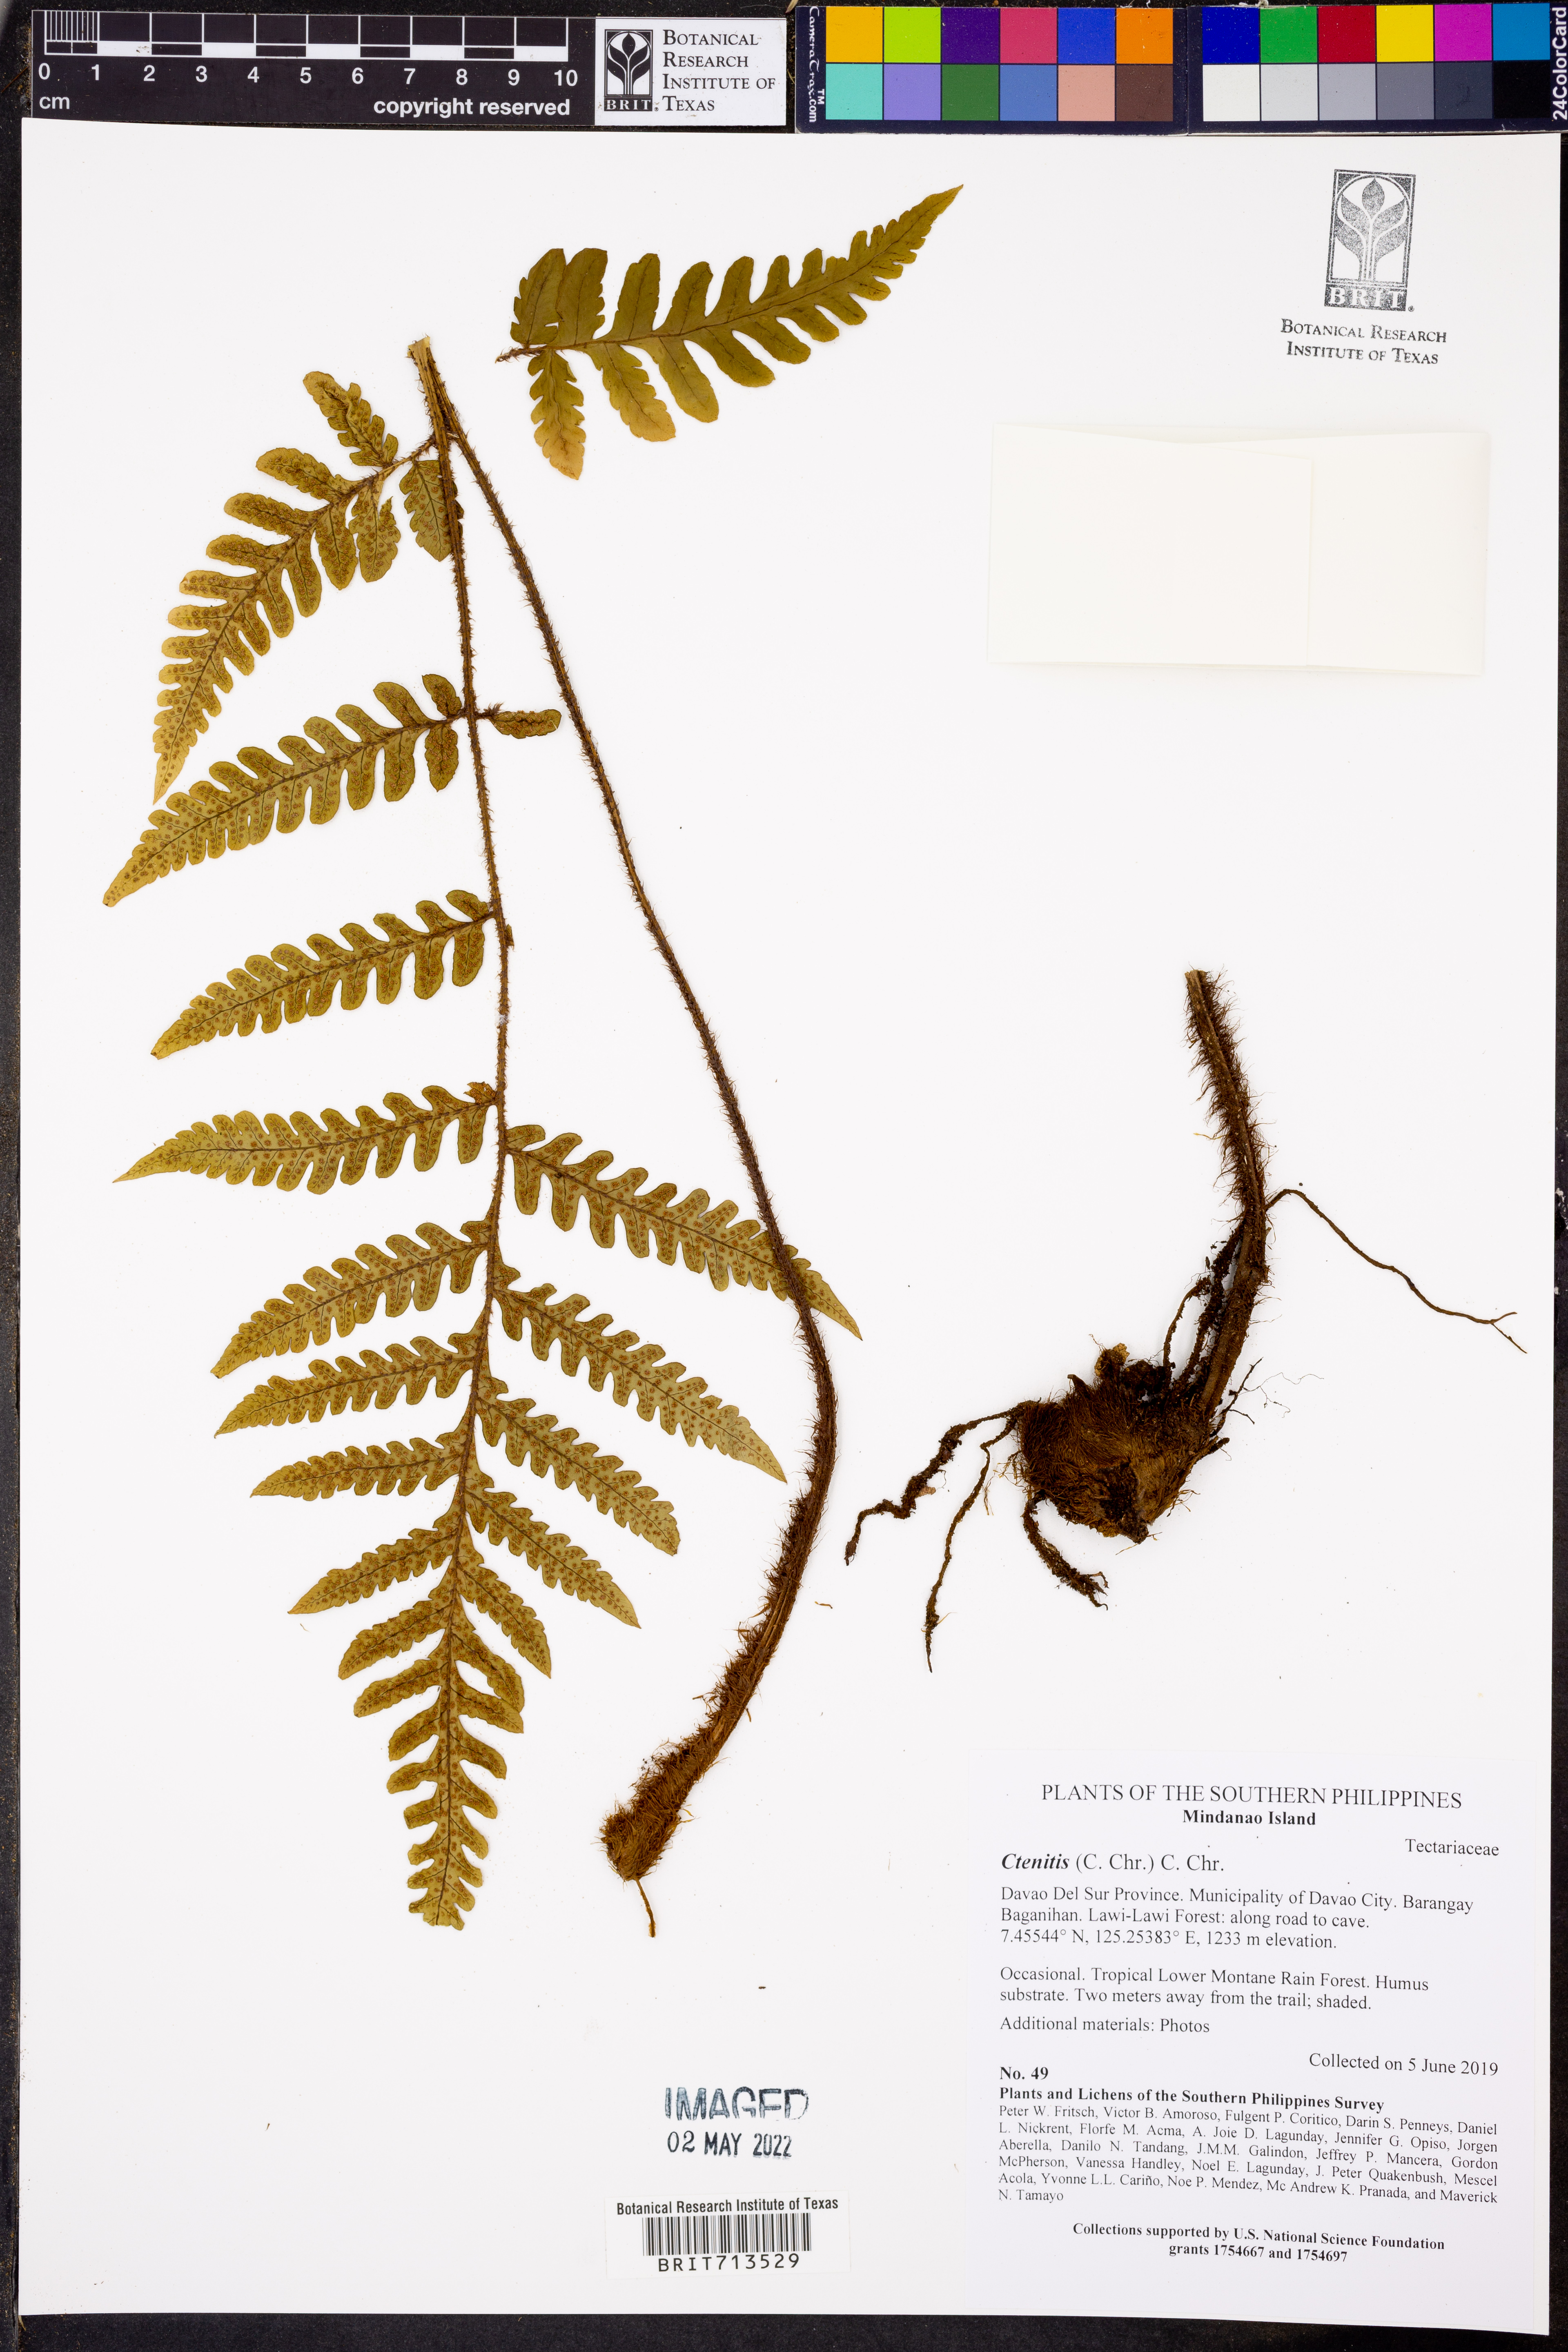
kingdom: Plantae
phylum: Tracheophyta
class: Polypodiopsida
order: Polypodiales
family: Dryopteridaceae
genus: Ctenitis
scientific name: Ctenitis
